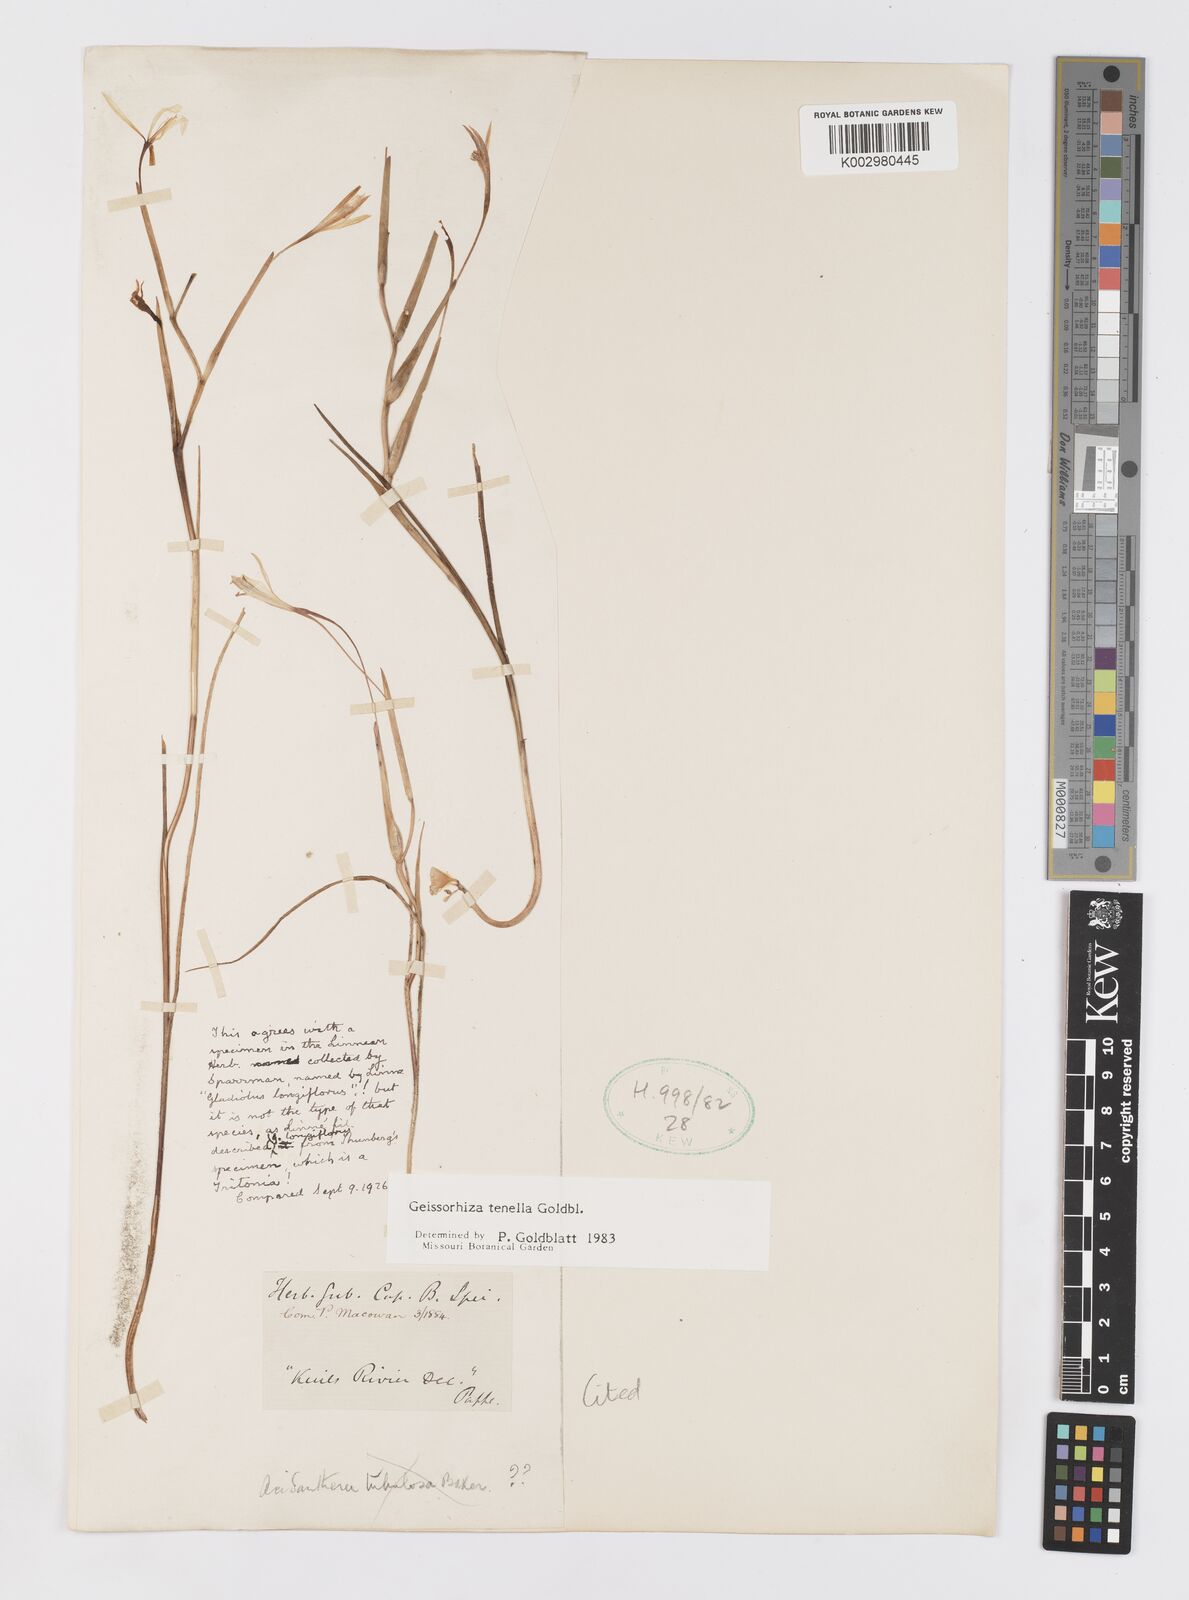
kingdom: Plantae
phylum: Tracheophyta
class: Liliopsida
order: Asparagales
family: Iridaceae
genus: Geissorhiza
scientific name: Geissorhiza tenella
